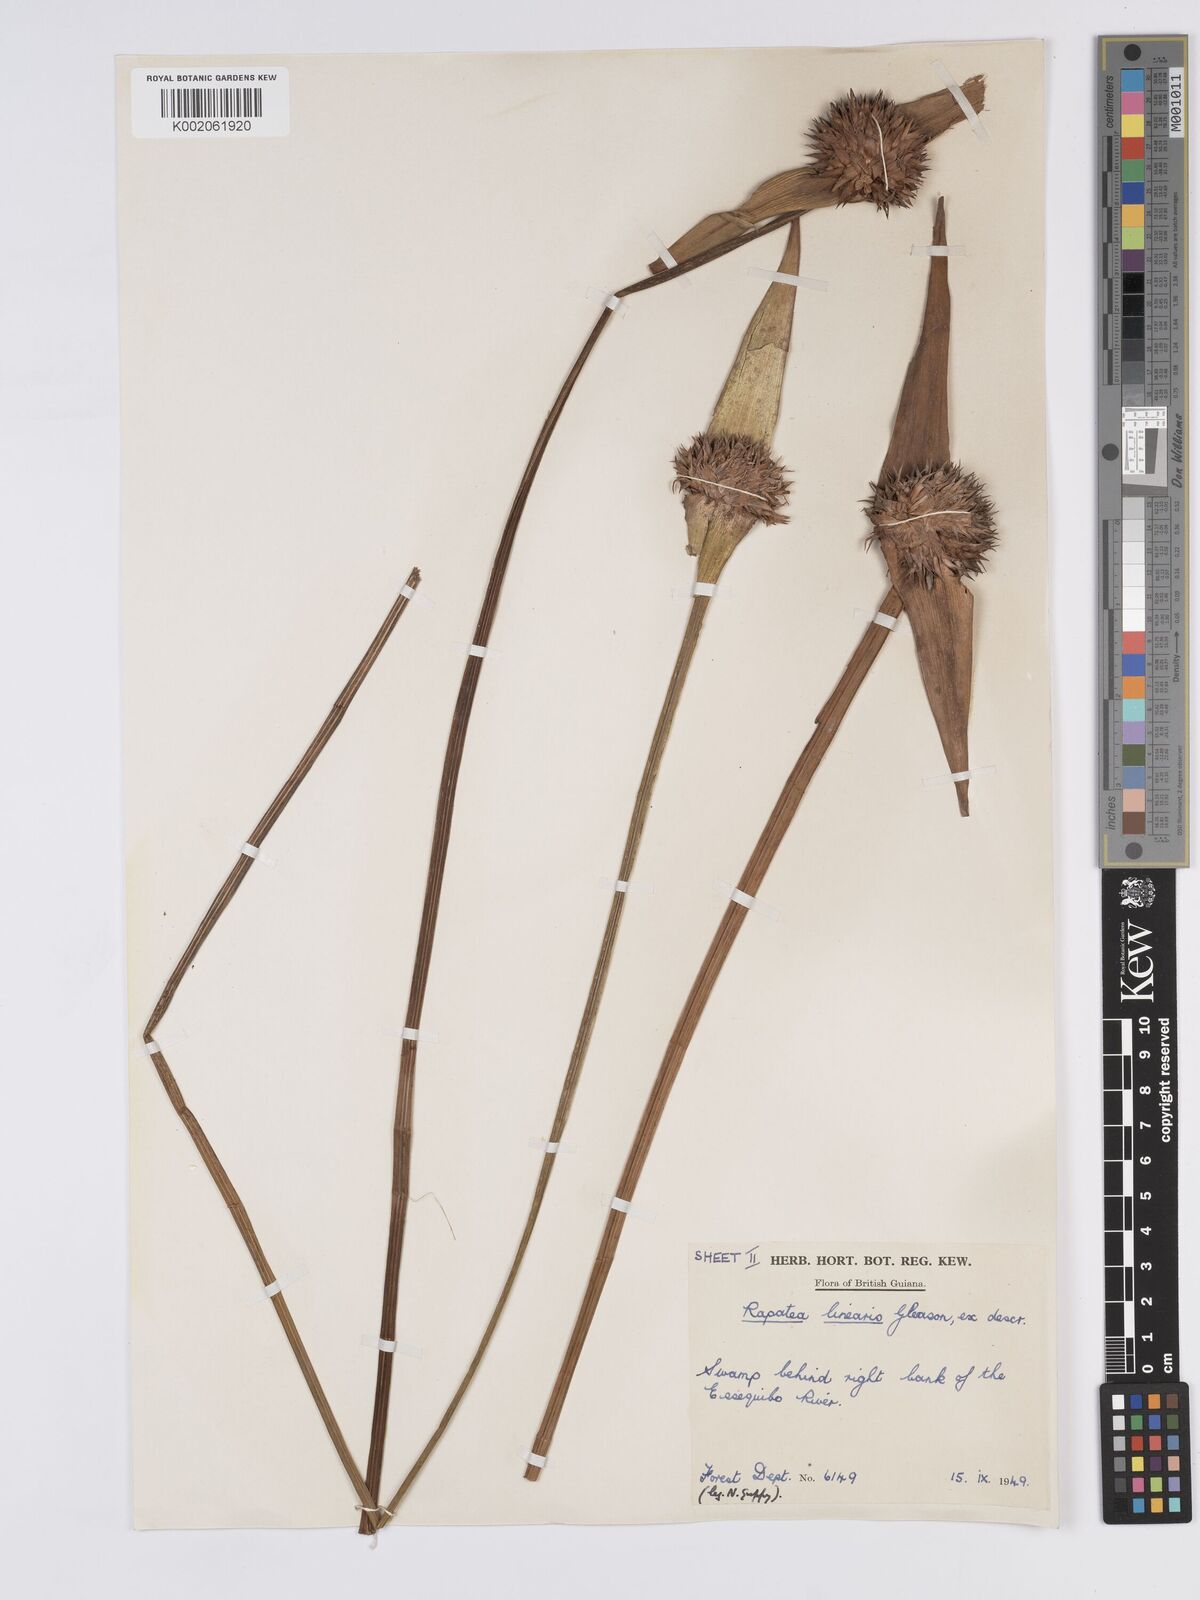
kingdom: Plantae
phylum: Tracheophyta
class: Liliopsida
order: Poales
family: Rapateaceae
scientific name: Rapateaceae
